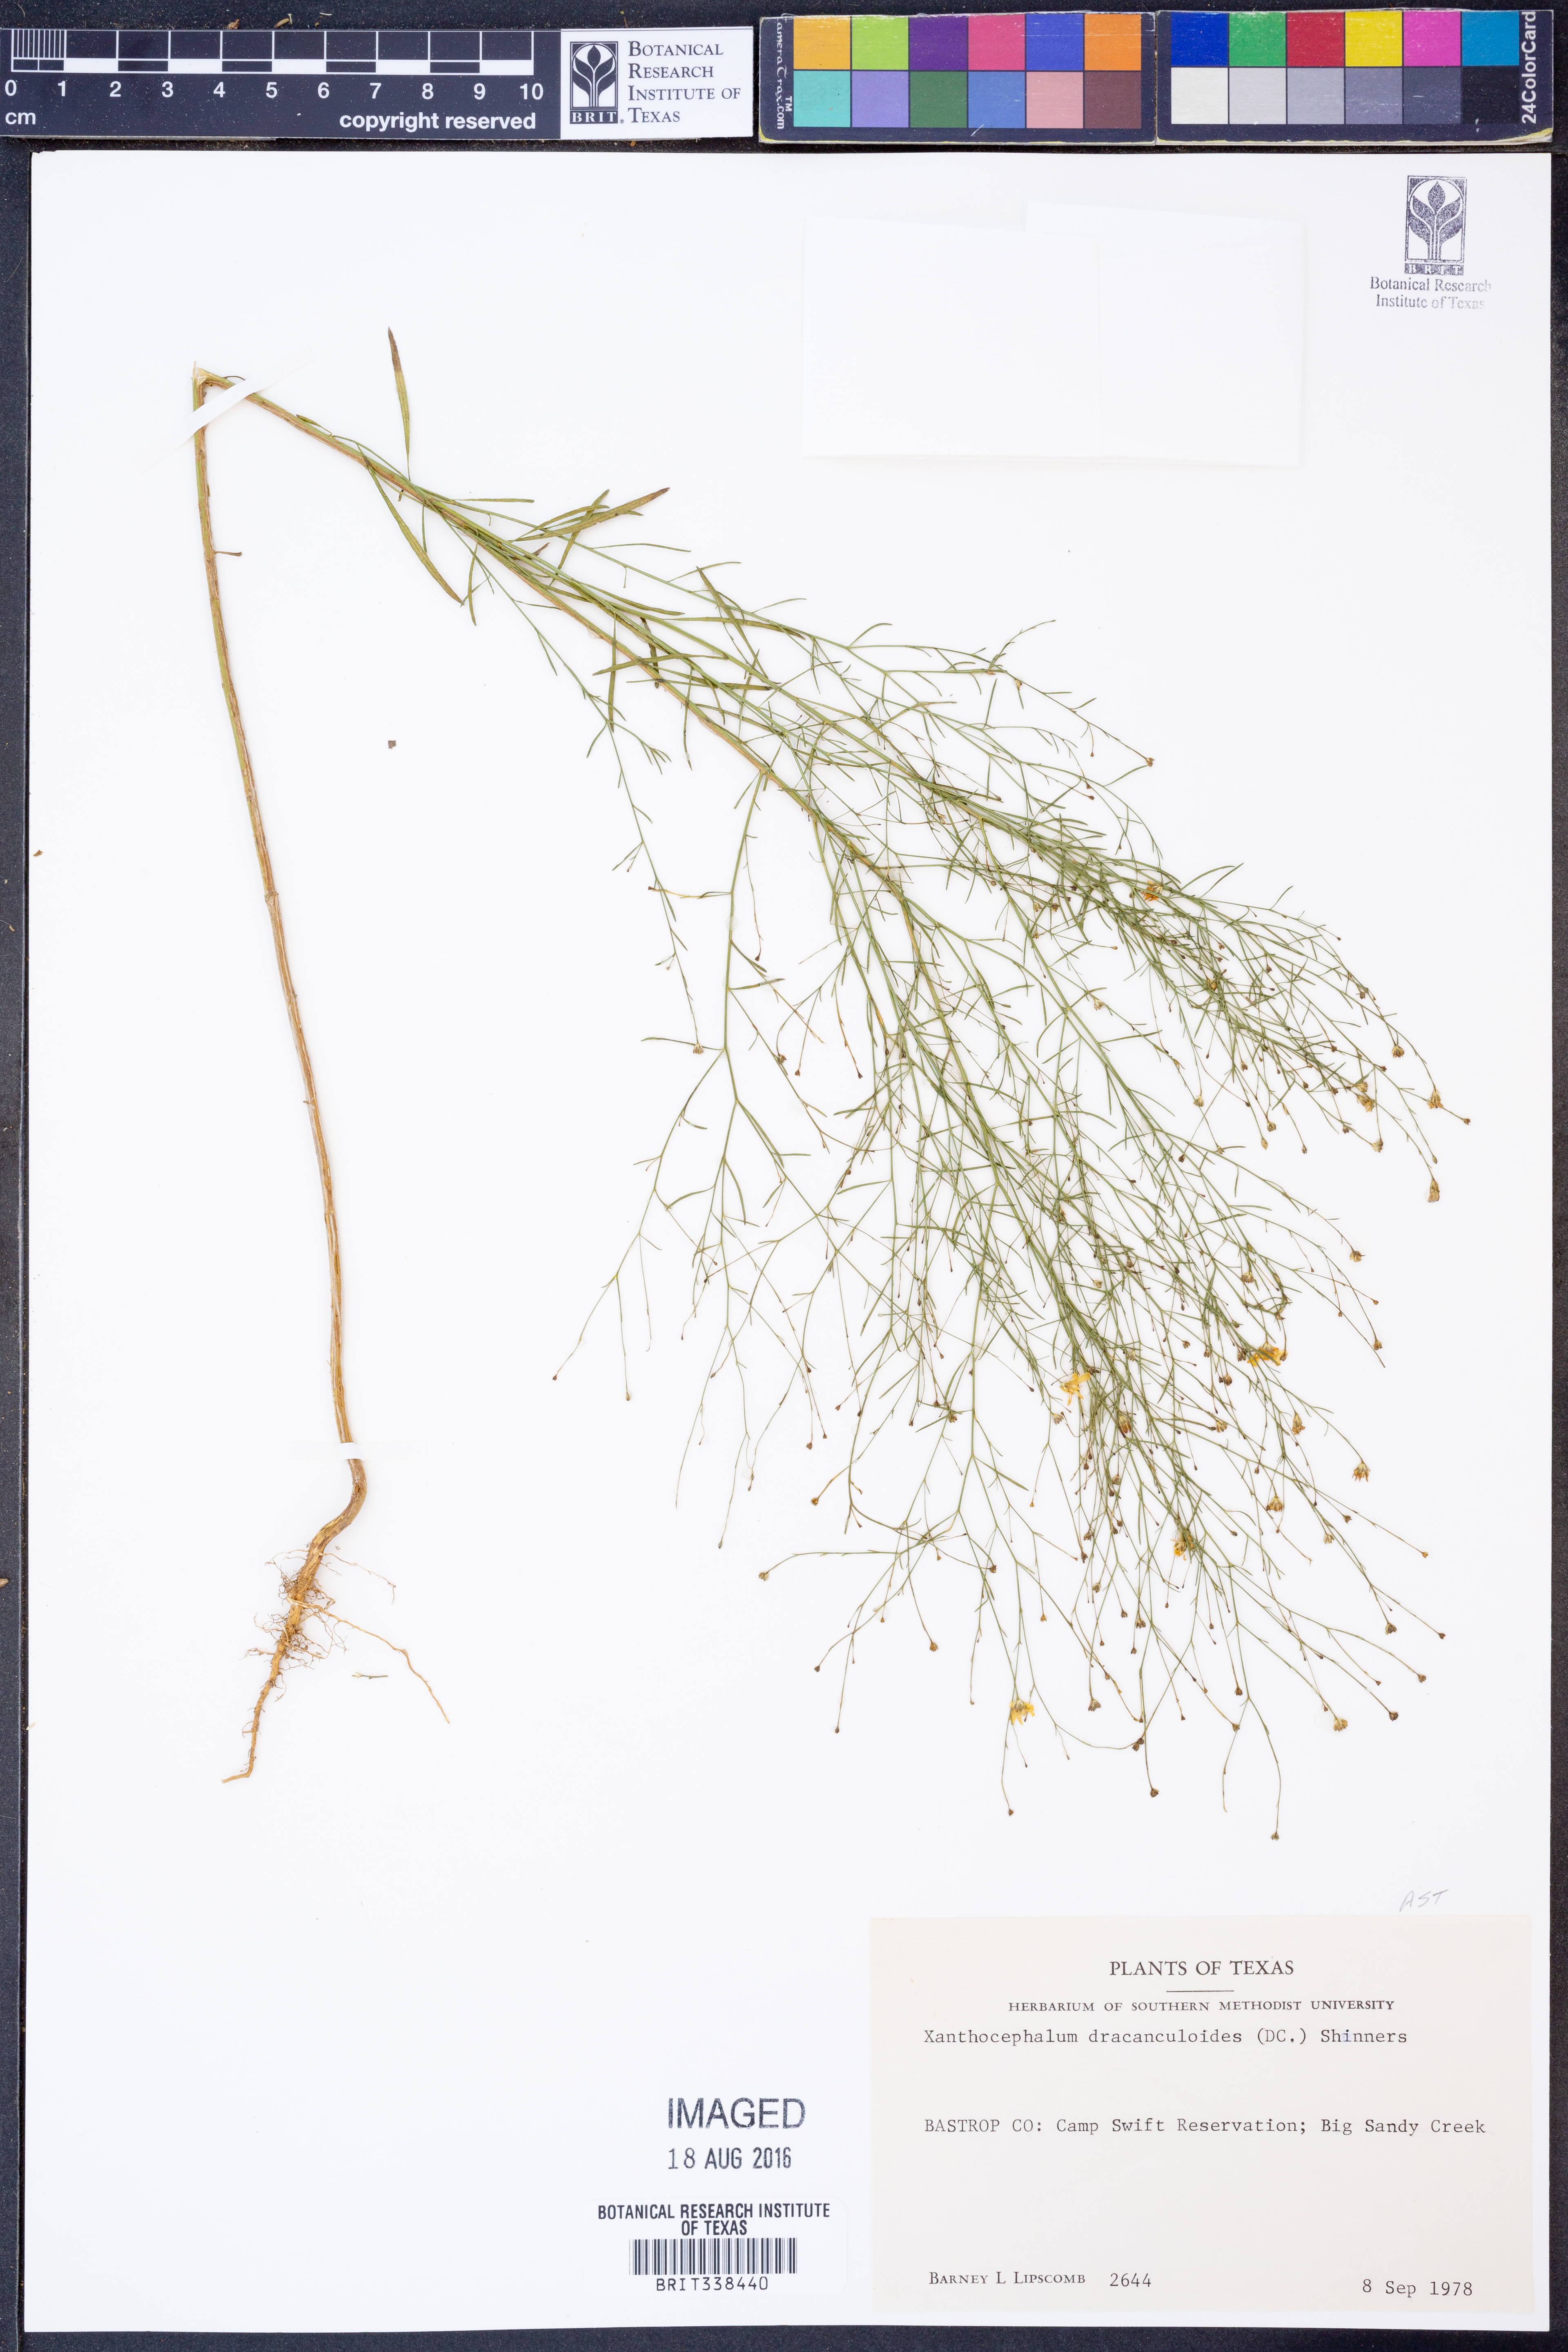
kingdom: Plantae
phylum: Tracheophyta
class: Magnoliopsida
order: Asterales
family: Asteraceae
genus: Amphiachyris
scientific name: Amphiachyris dracunculoides
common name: Broomweed
